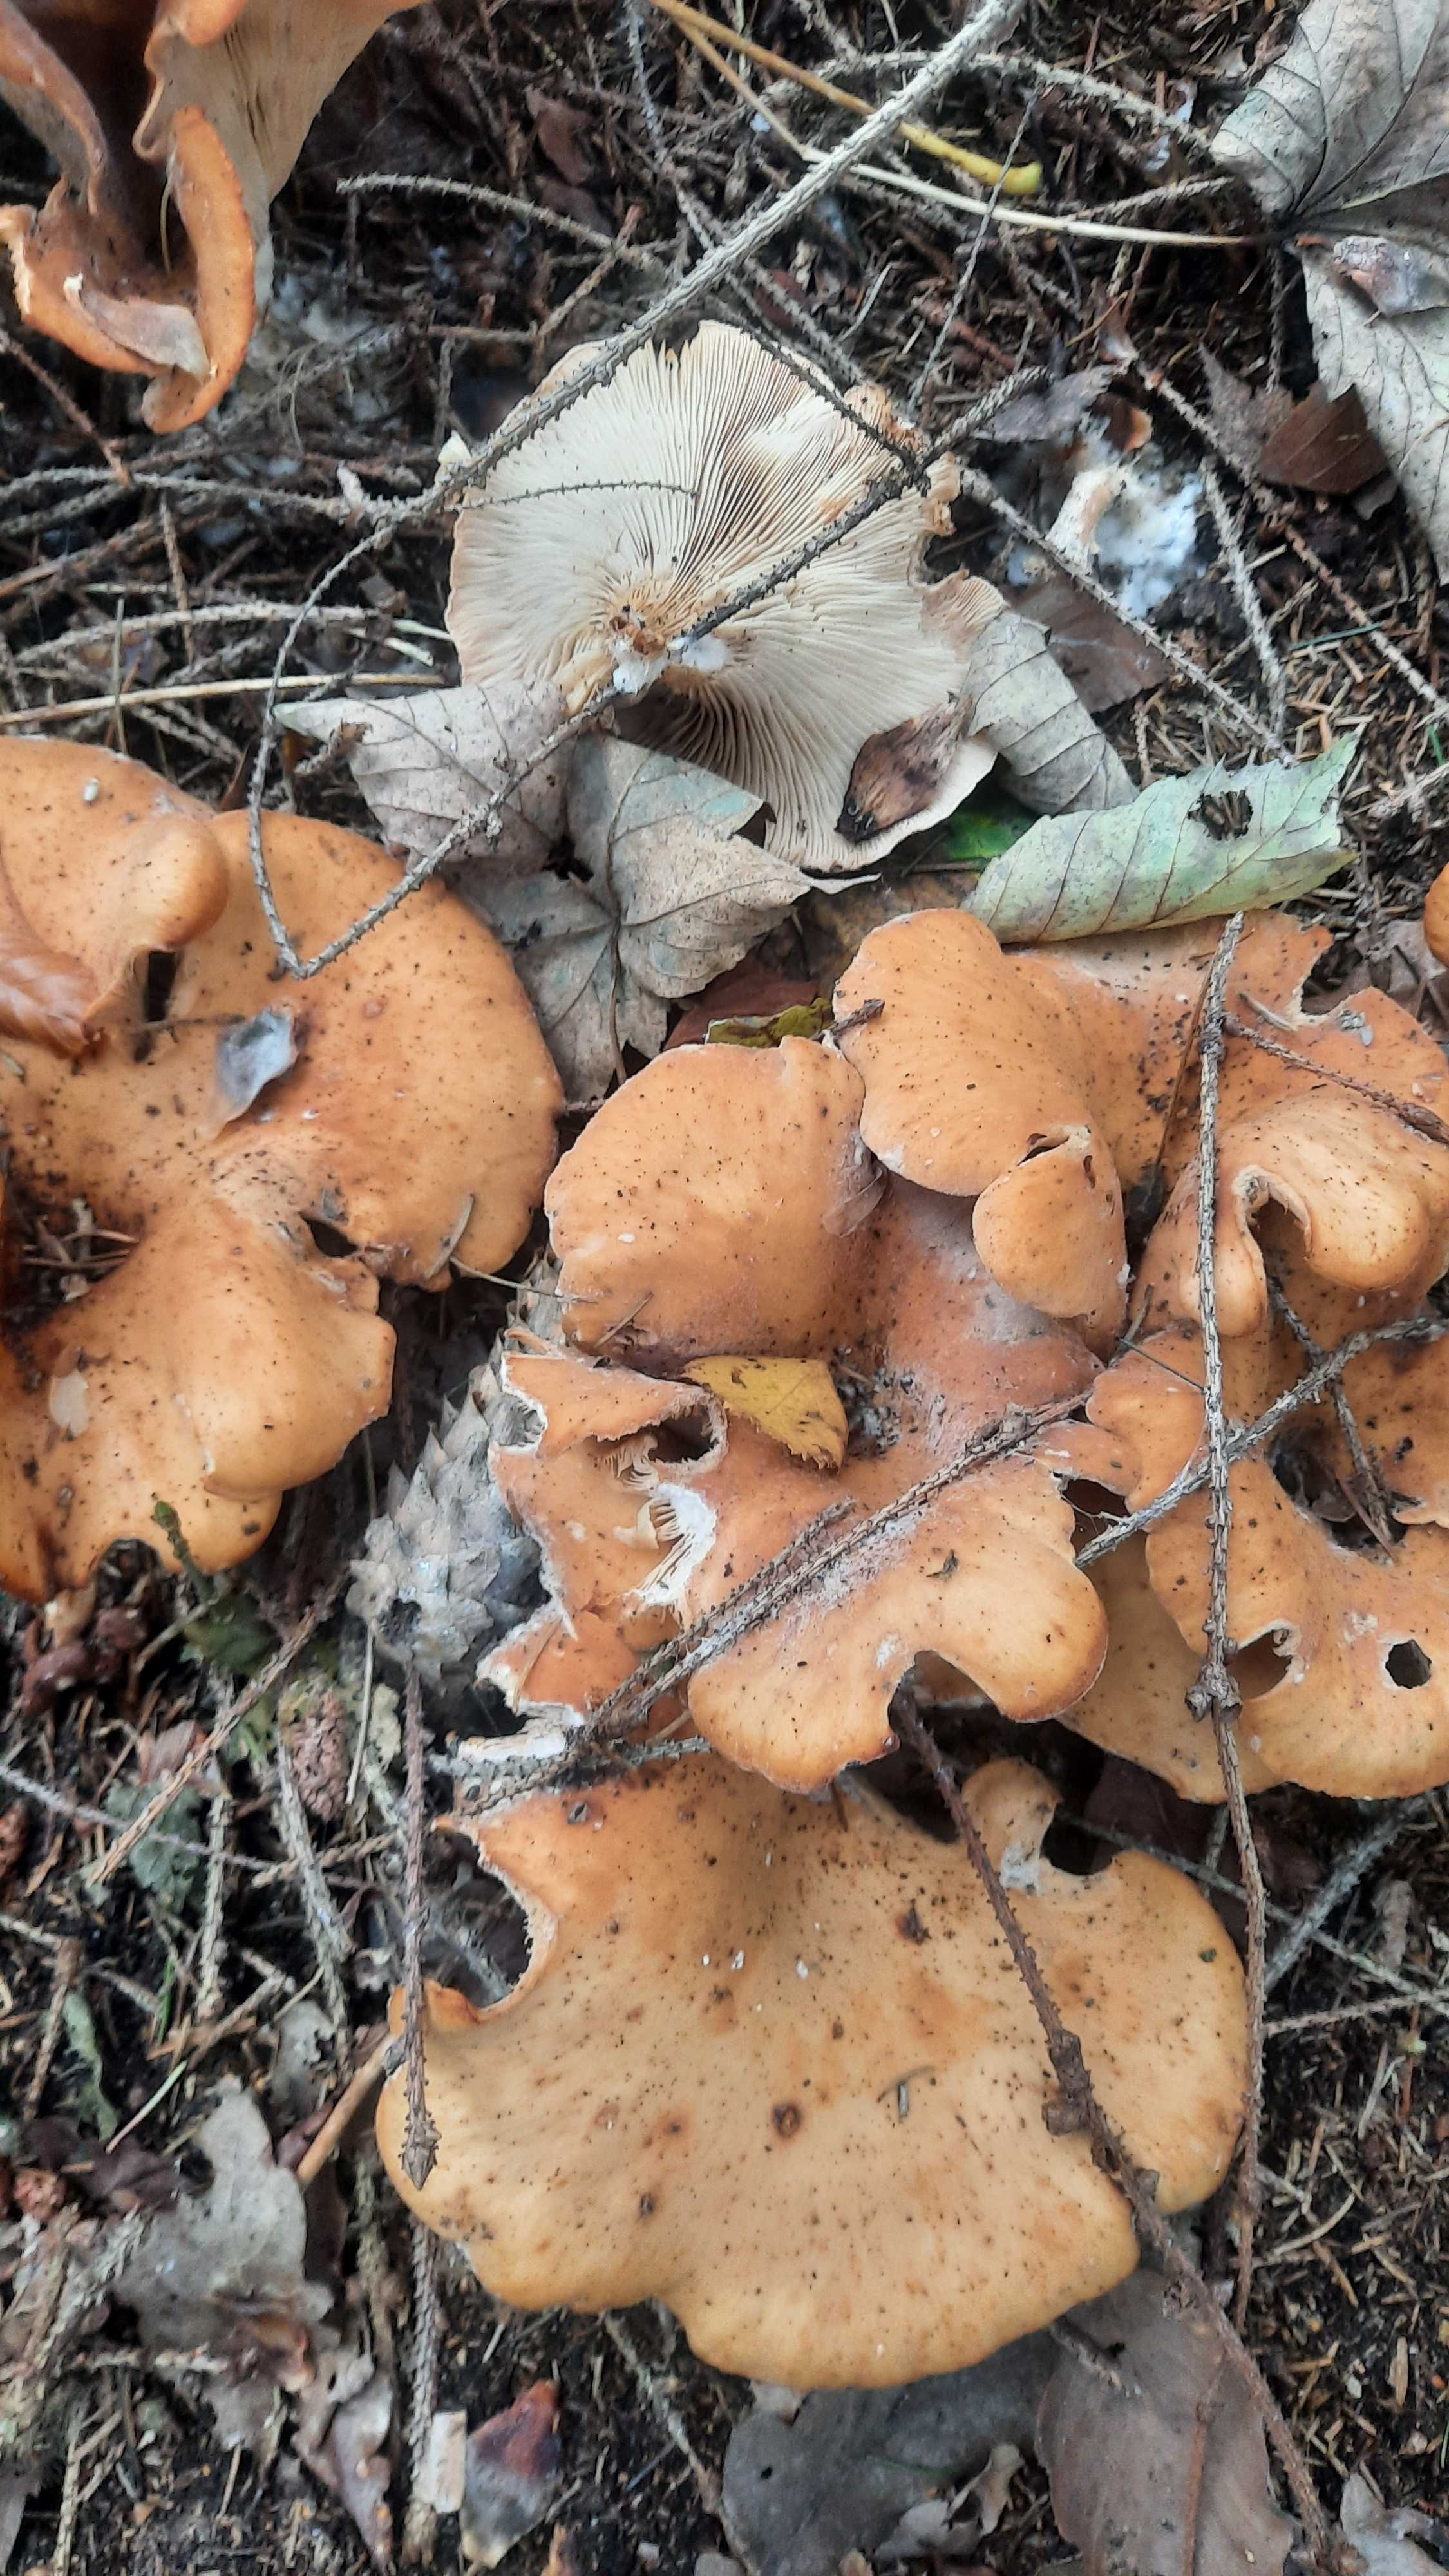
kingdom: Fungi
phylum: Basidiomycota
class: Agaricomycetes
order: Agaricales
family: Tricholomataceae
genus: Paralepista
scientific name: Paralepista flaccida
